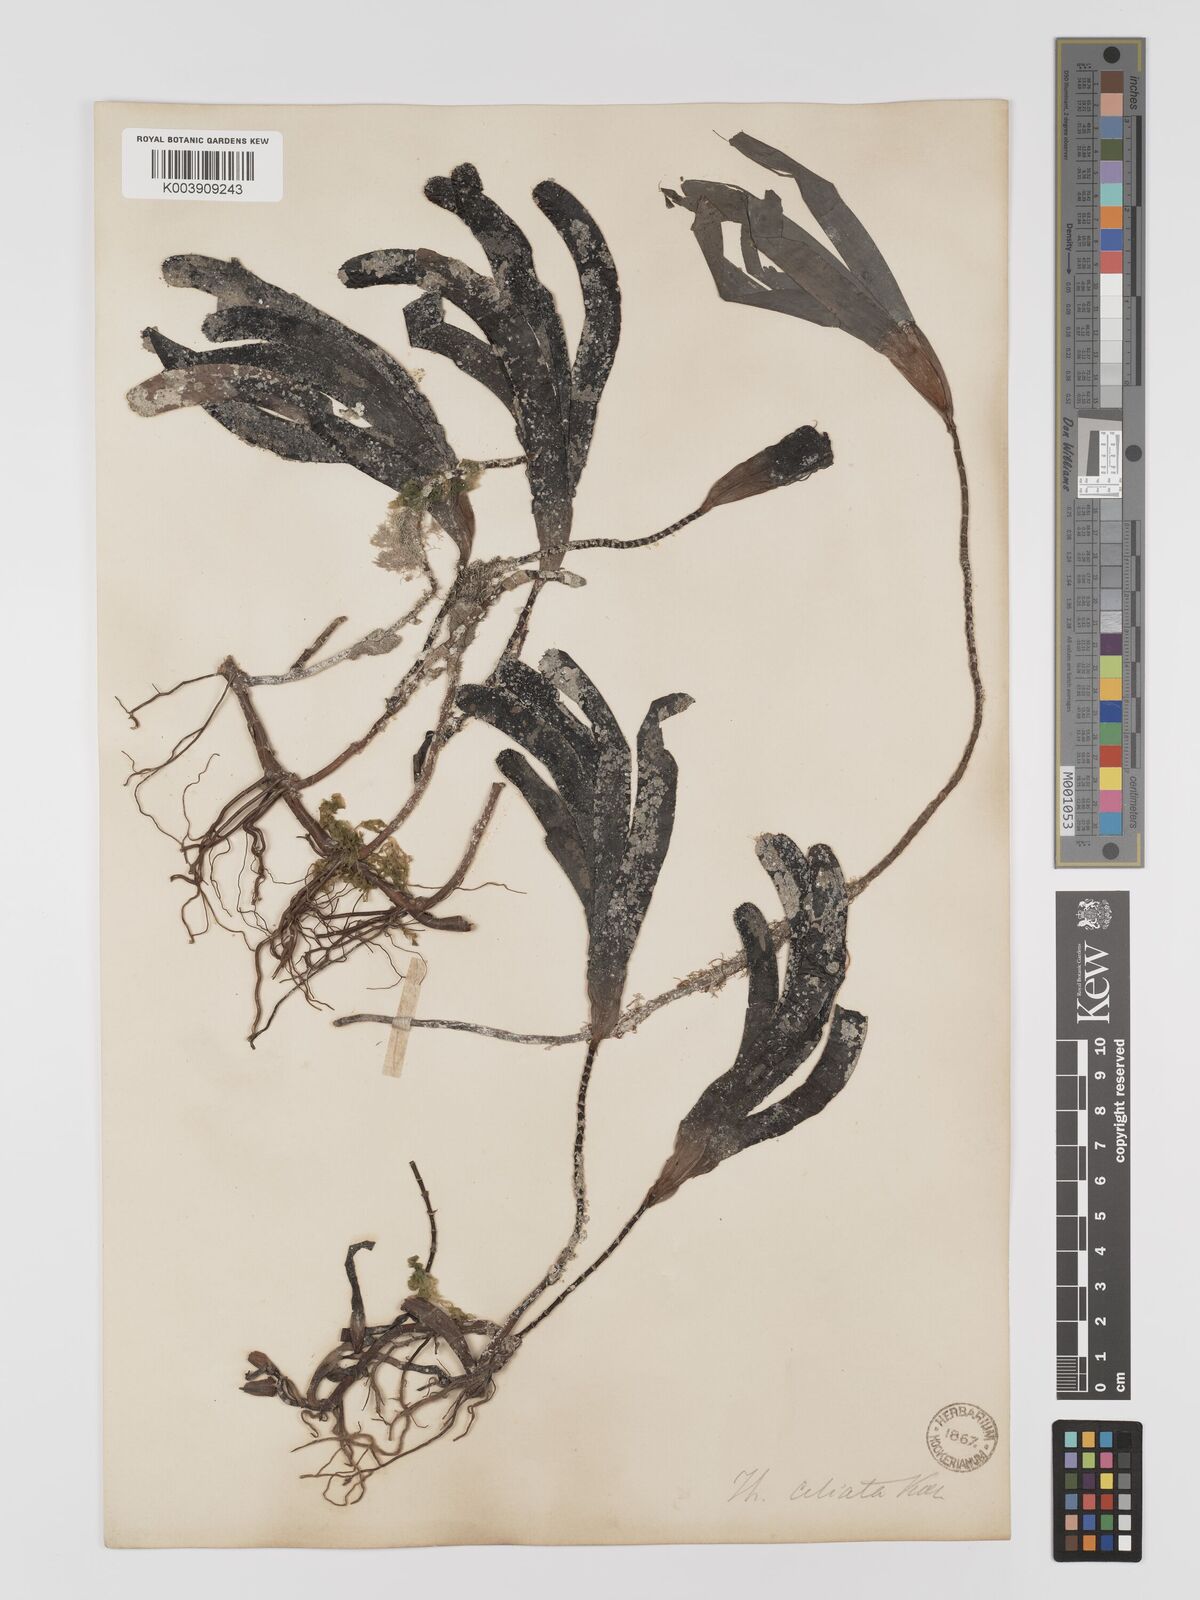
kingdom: Plantae
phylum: Tracheophyta
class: Liliopsida
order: Alismatales
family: Cymodoceaceae
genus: Thalassodendron
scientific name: Thalassodendron ciliatum
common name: Species code: tc
